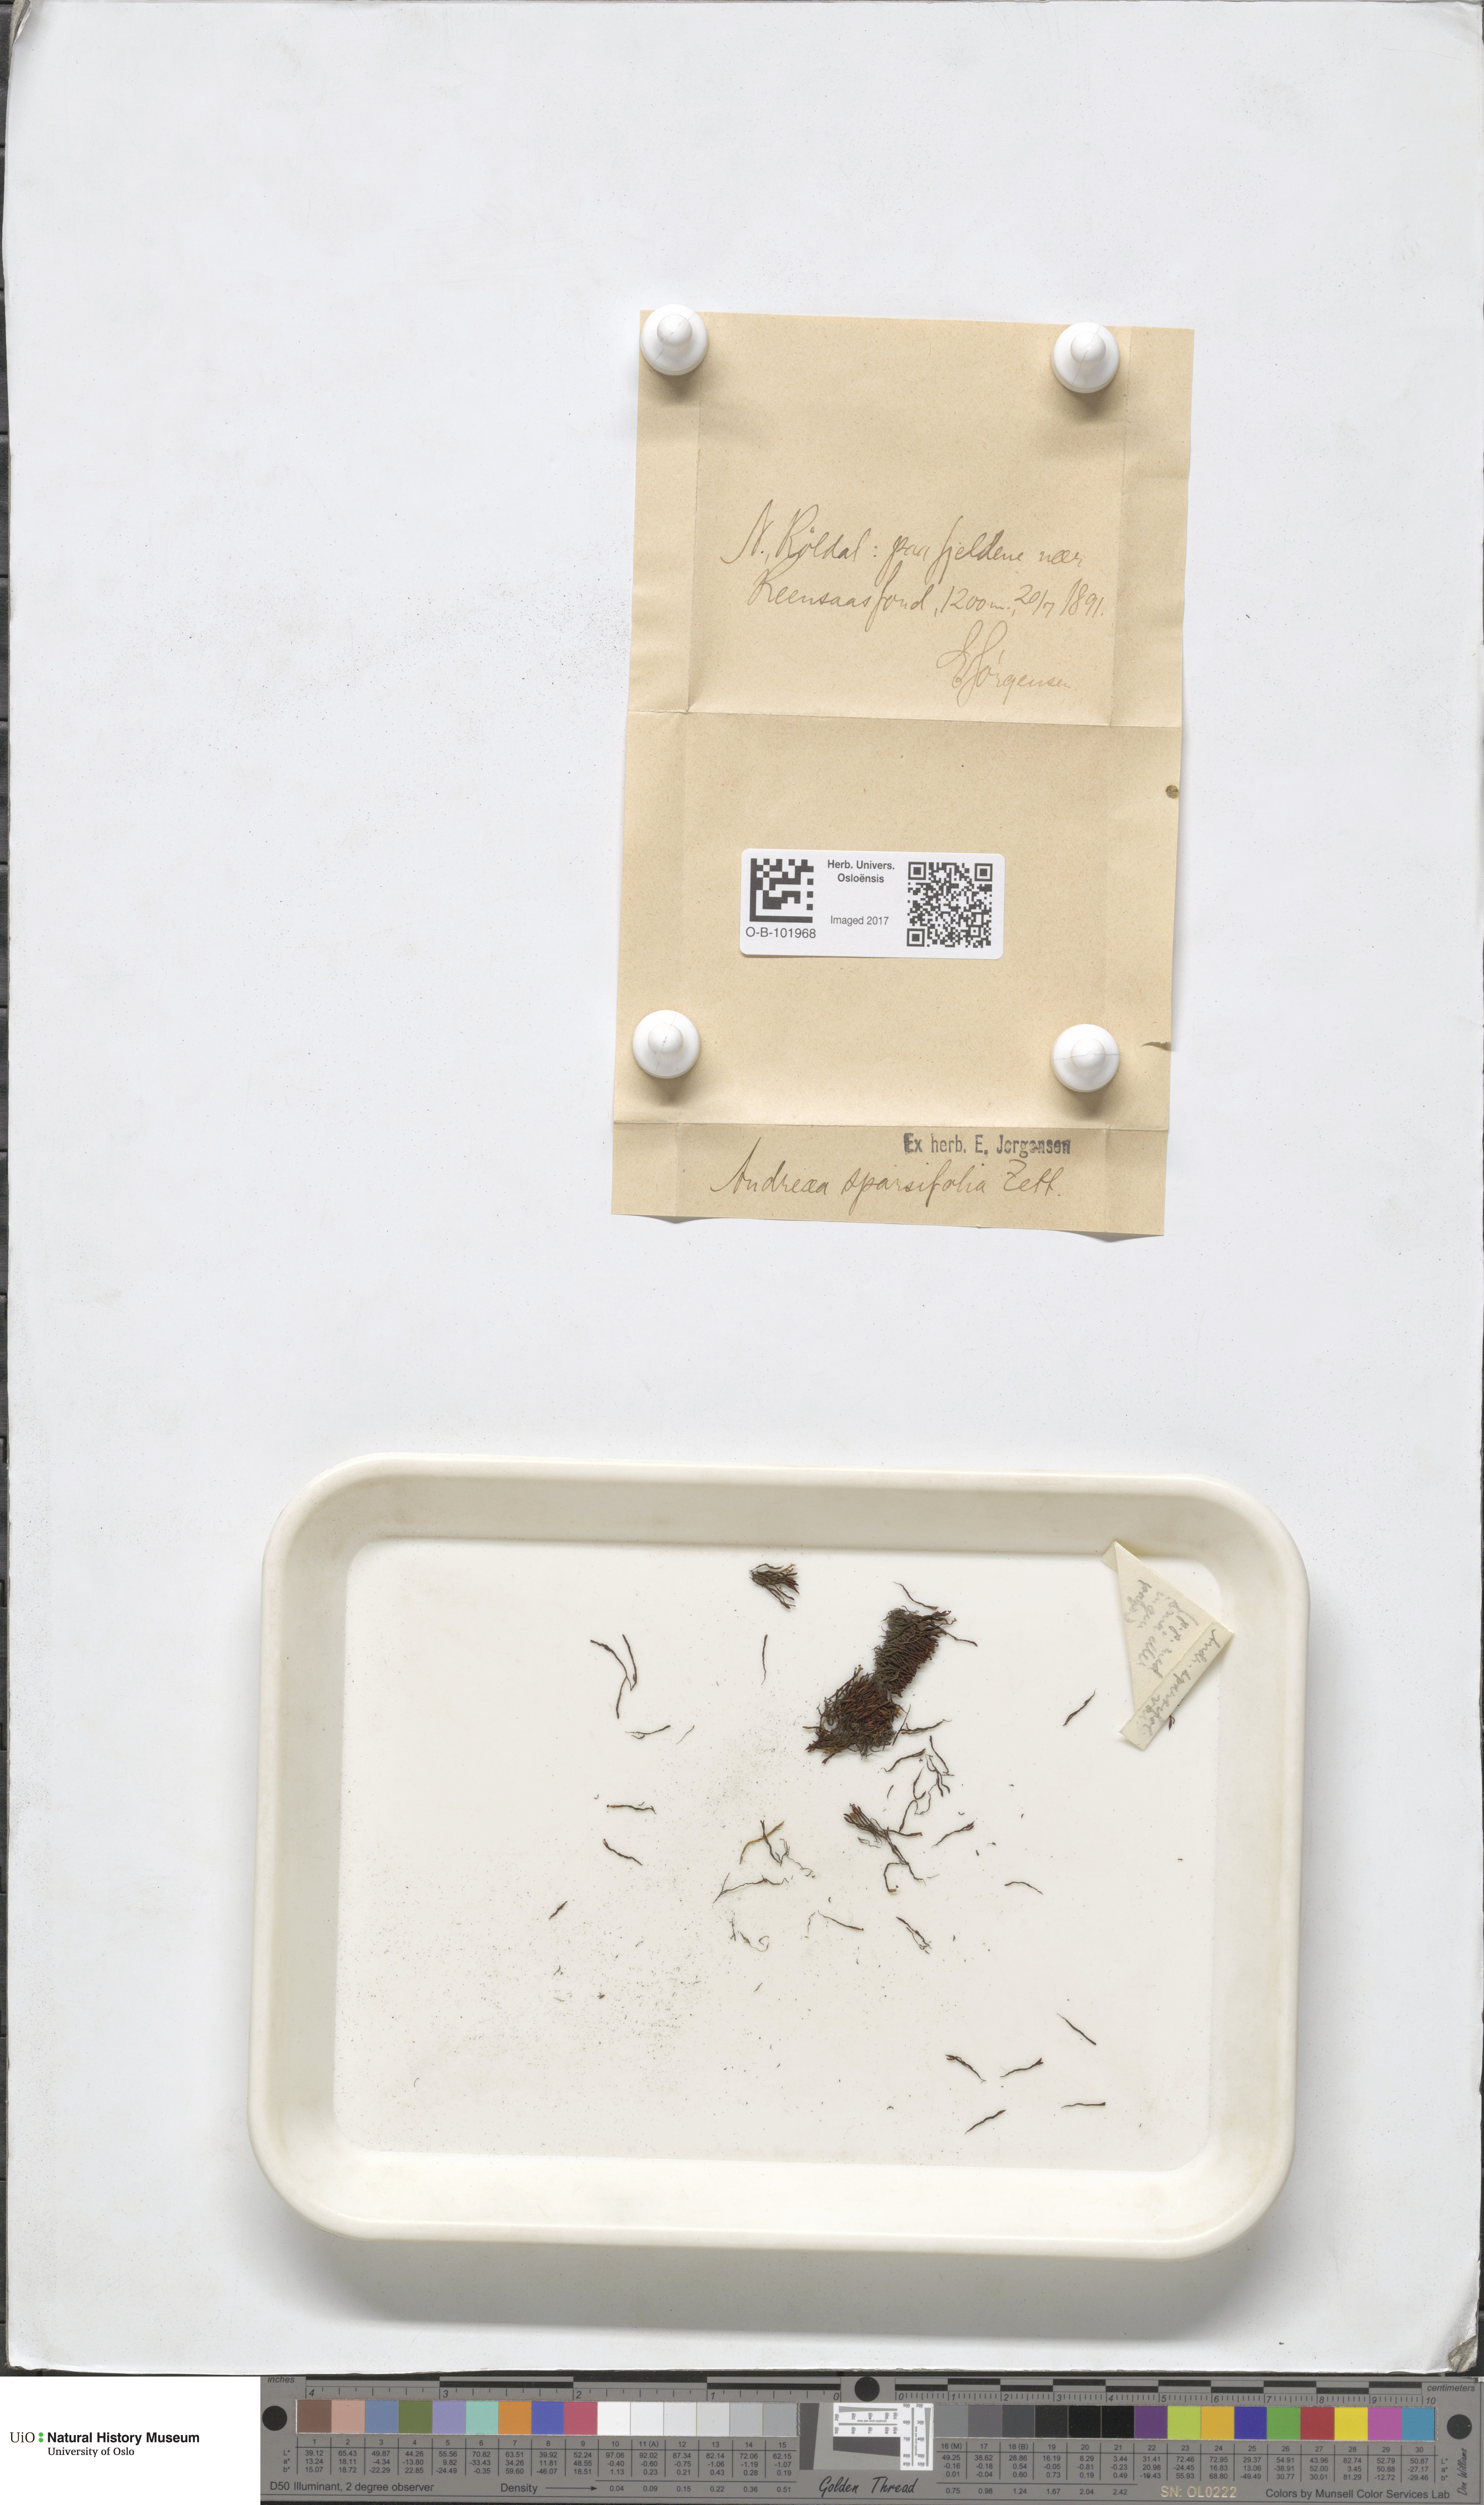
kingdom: Plantae
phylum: Bryophyta
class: Andreaeopsida
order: Andreaeales
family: Andreaeaceae
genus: Andreaea
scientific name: Andreaea rupestris
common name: Black rock moss
